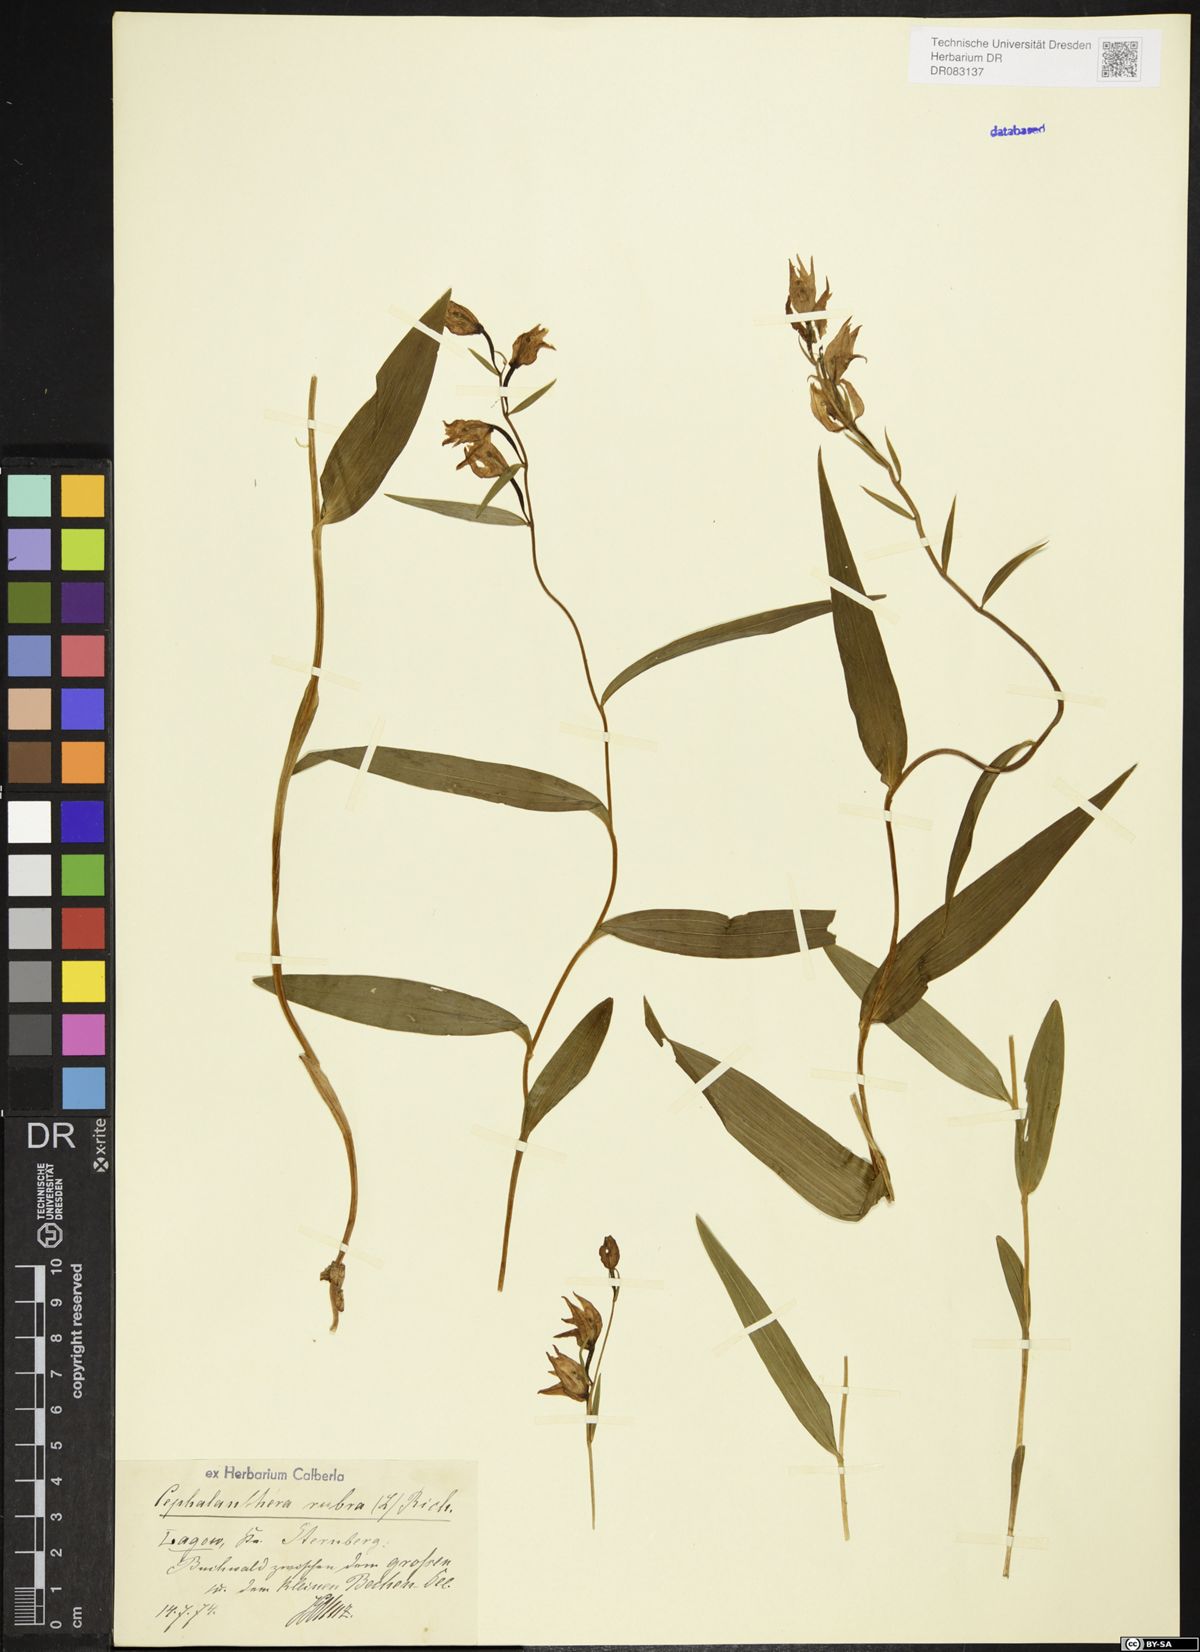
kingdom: Plantae
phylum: Tracheophyta
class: Liliopsida
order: Asparagales
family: Orchidaceae
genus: Cephalanthera
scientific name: Cephalanthera rubra
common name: Red helleborine
